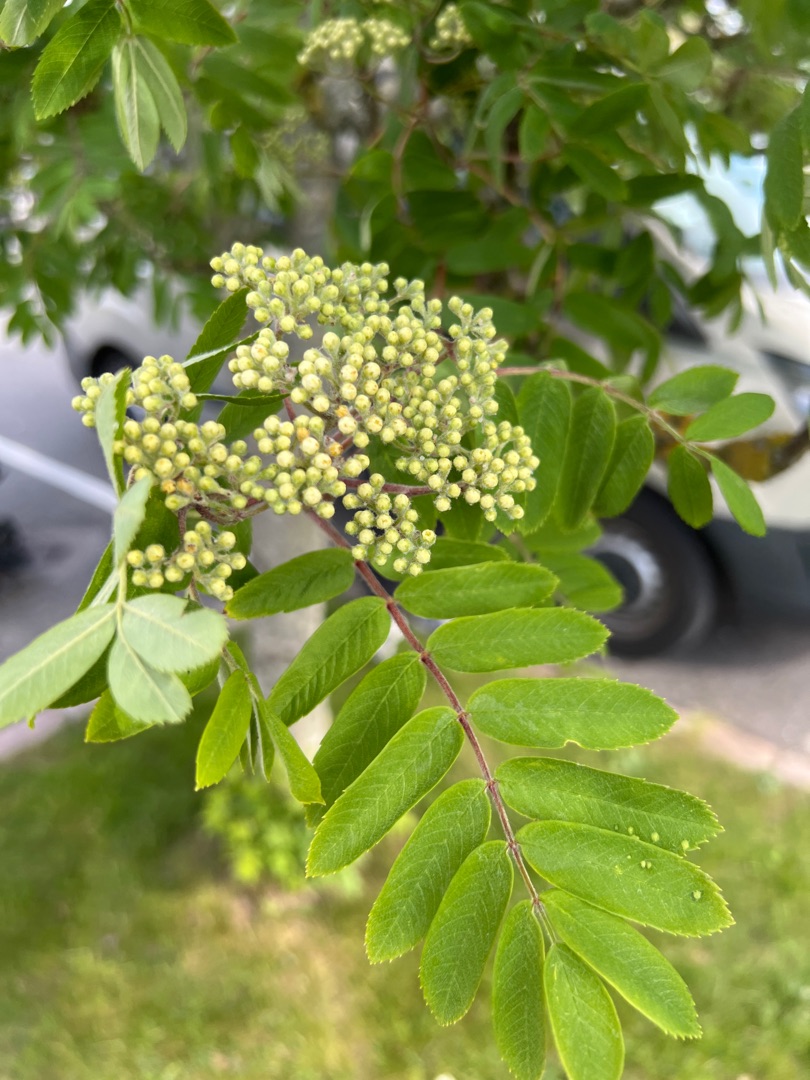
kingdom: Plantae
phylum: Tracheophyta
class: Magnoliopsida
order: Rosales
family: Rosaceae
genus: Sorbus
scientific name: Sorbus aucuparia
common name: Almindelig røn
